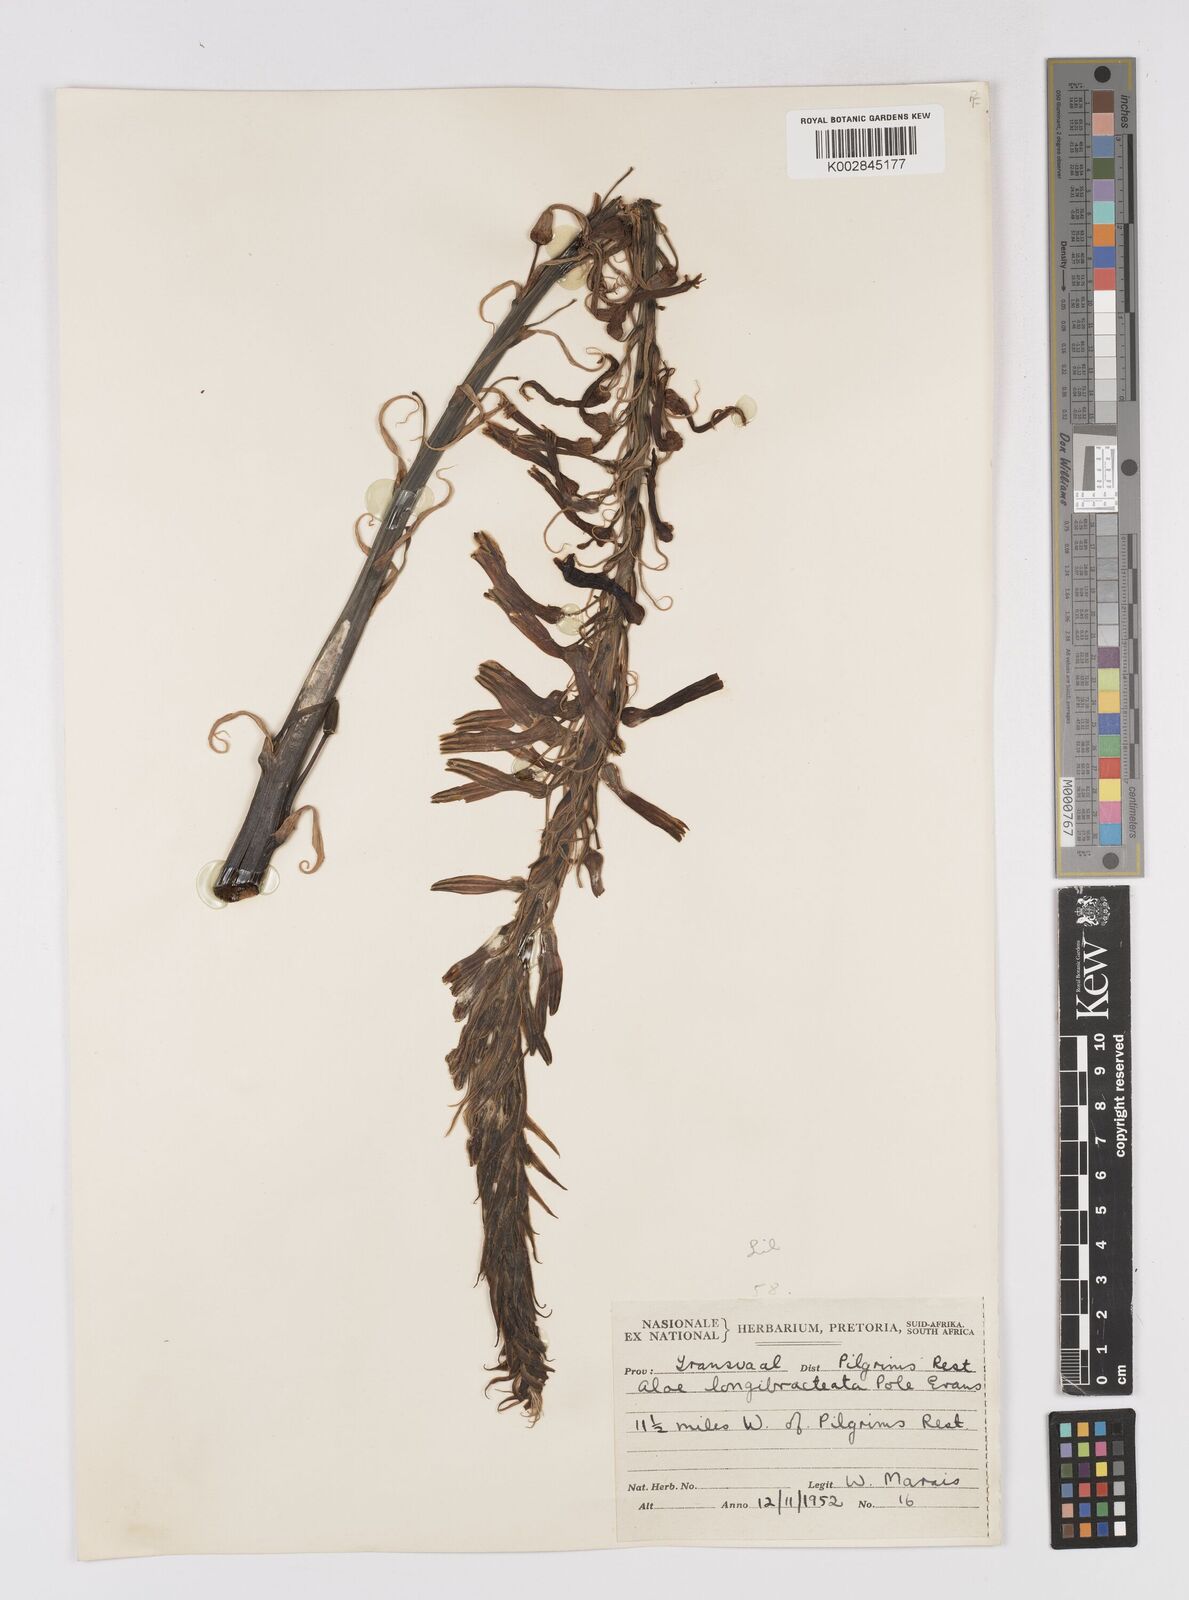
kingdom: Plantae
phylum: Tracheophyta
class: Liliopsida
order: Asparagales
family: Asphodelaceae
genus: Aloe
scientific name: Aloe longibracteata
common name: Limpopo spotted aloe
